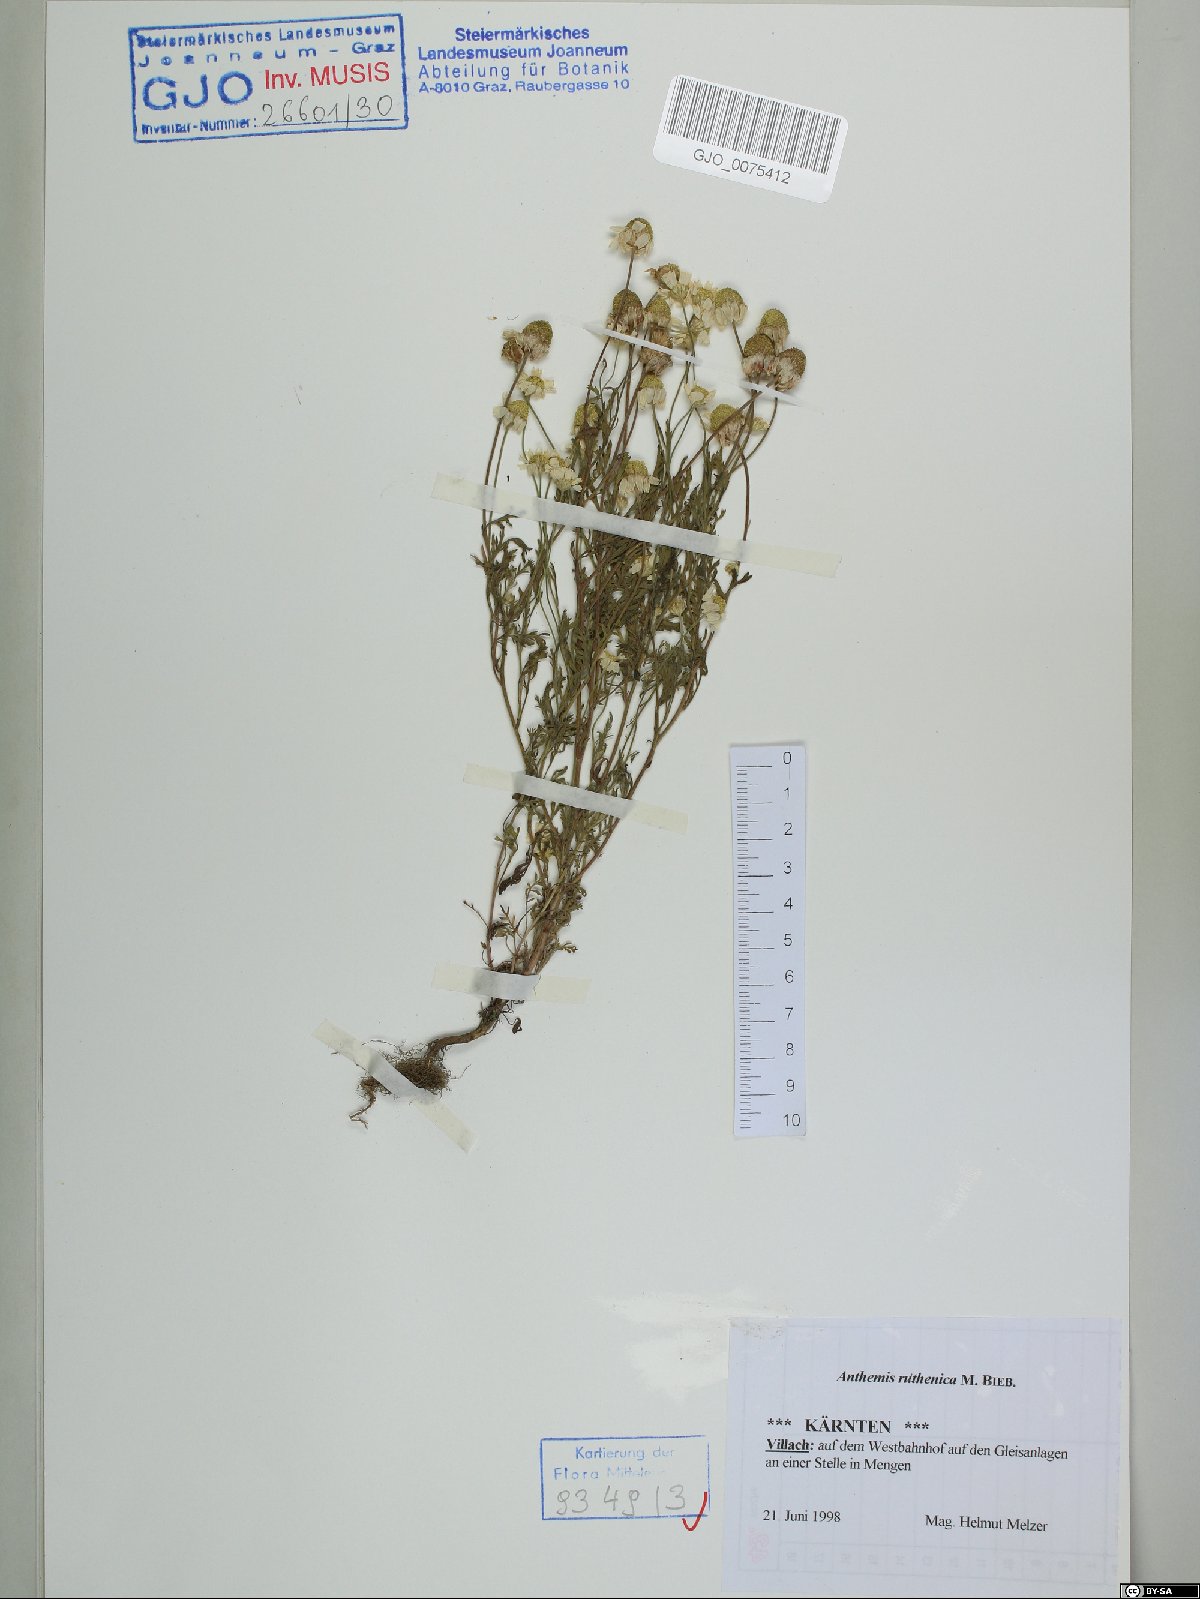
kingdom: Plantae
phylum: Tracheophyta
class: Magnoliopsida
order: Asterales
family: Asteraceae
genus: Anthemis
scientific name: Anthemis ruthenica
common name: Eastern chamomile
